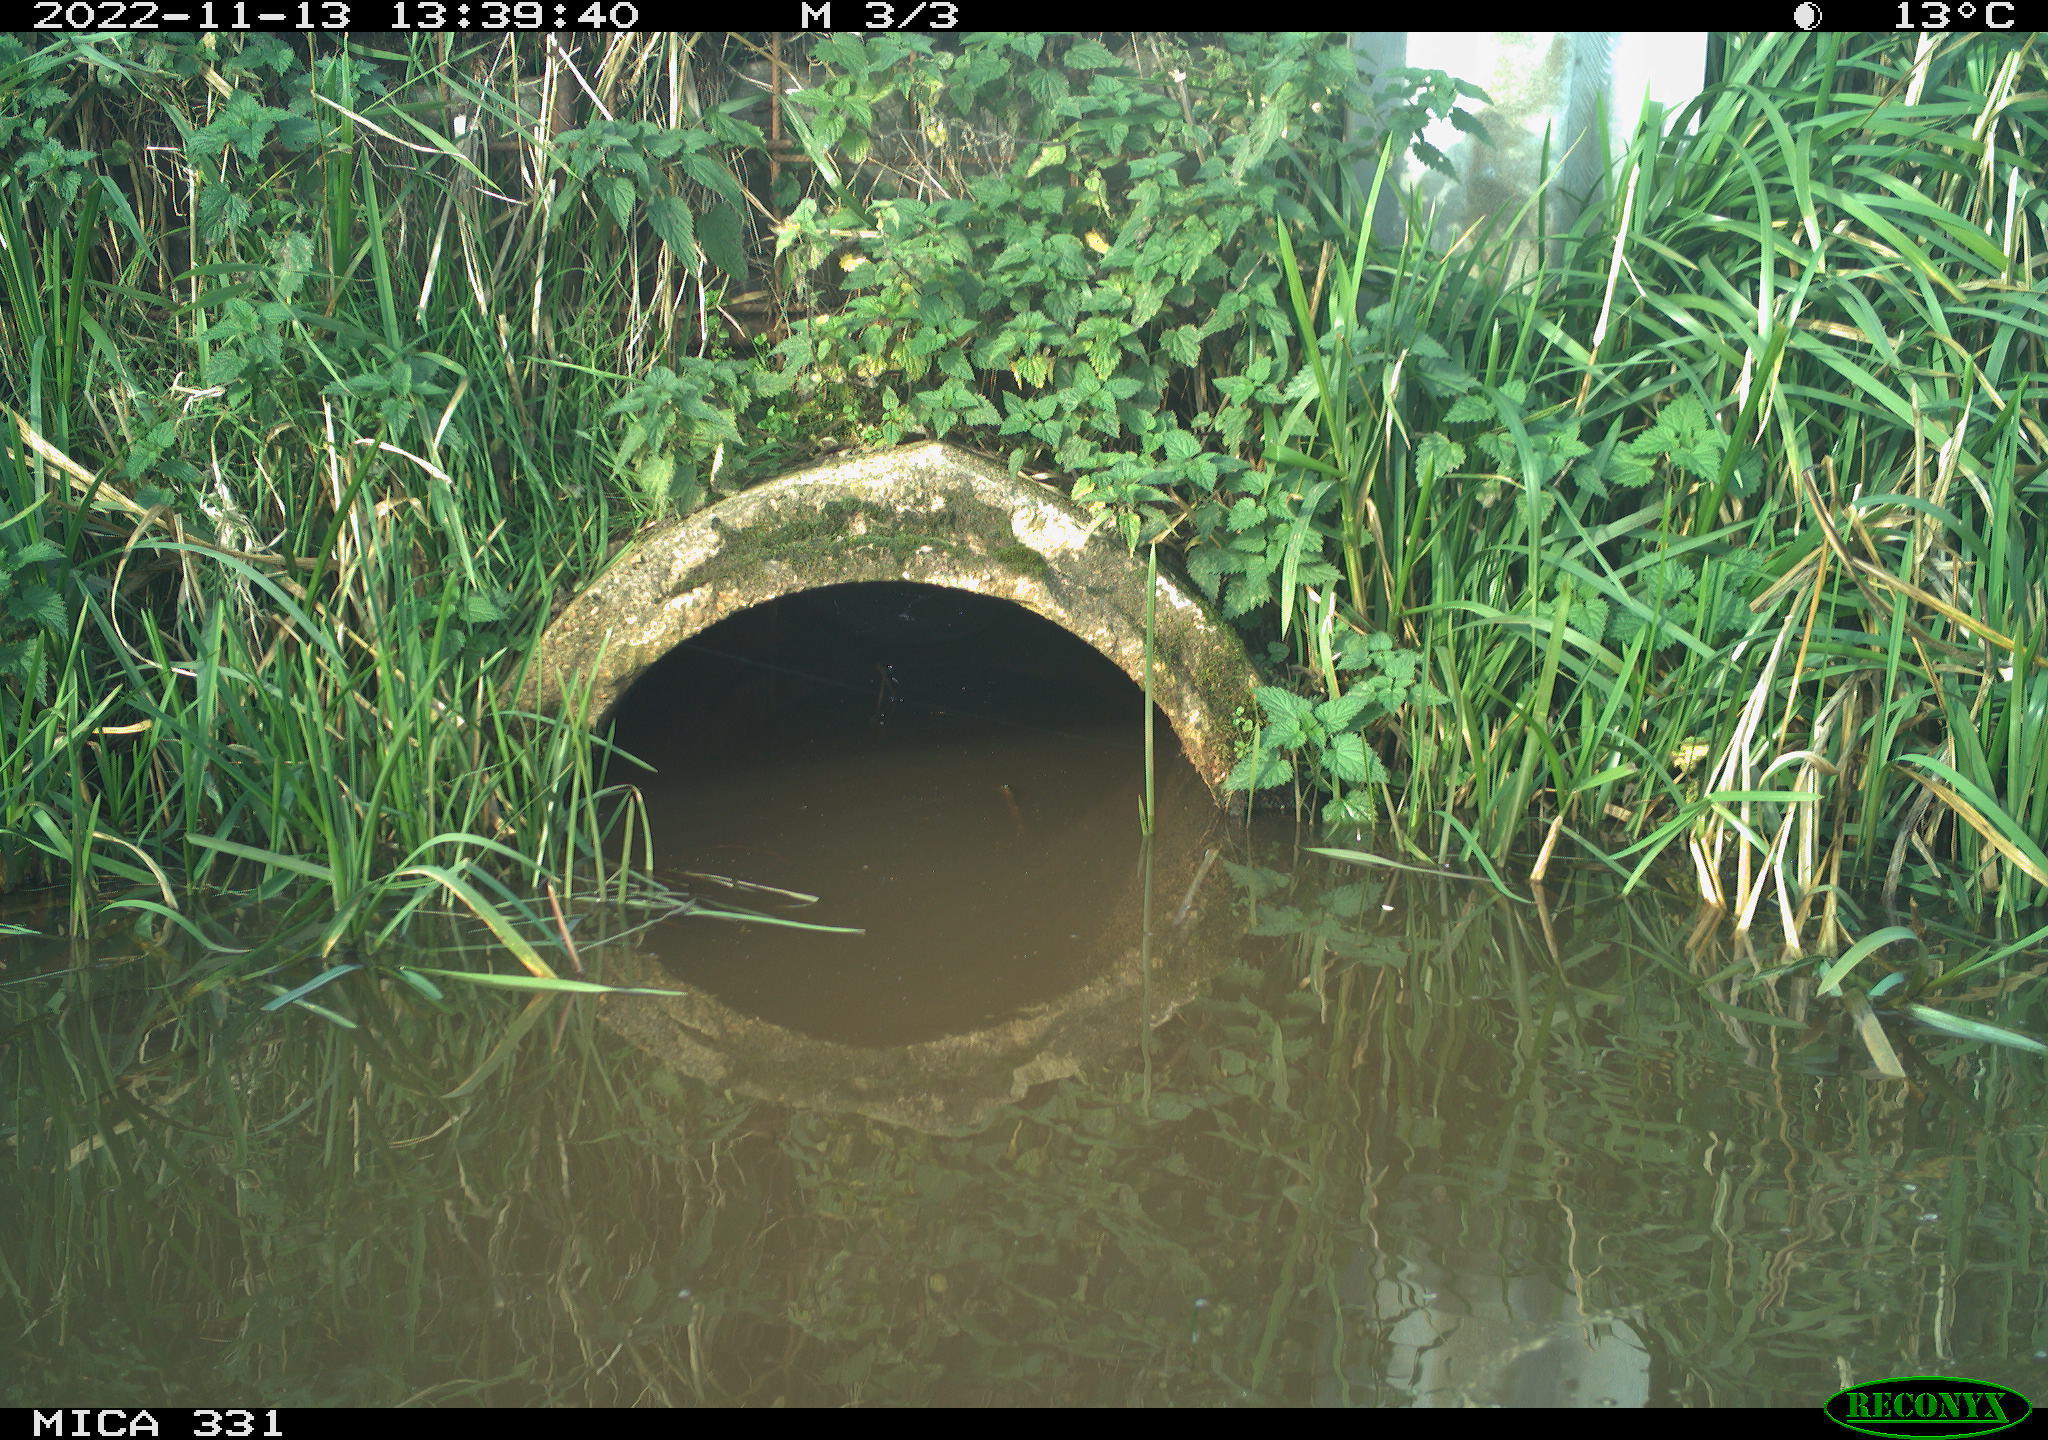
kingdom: Animalia
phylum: Chordata
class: Aves
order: Gruiformes
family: Rallidae
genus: Gallinula
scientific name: Gallinula chloropus
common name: Common moorhen
